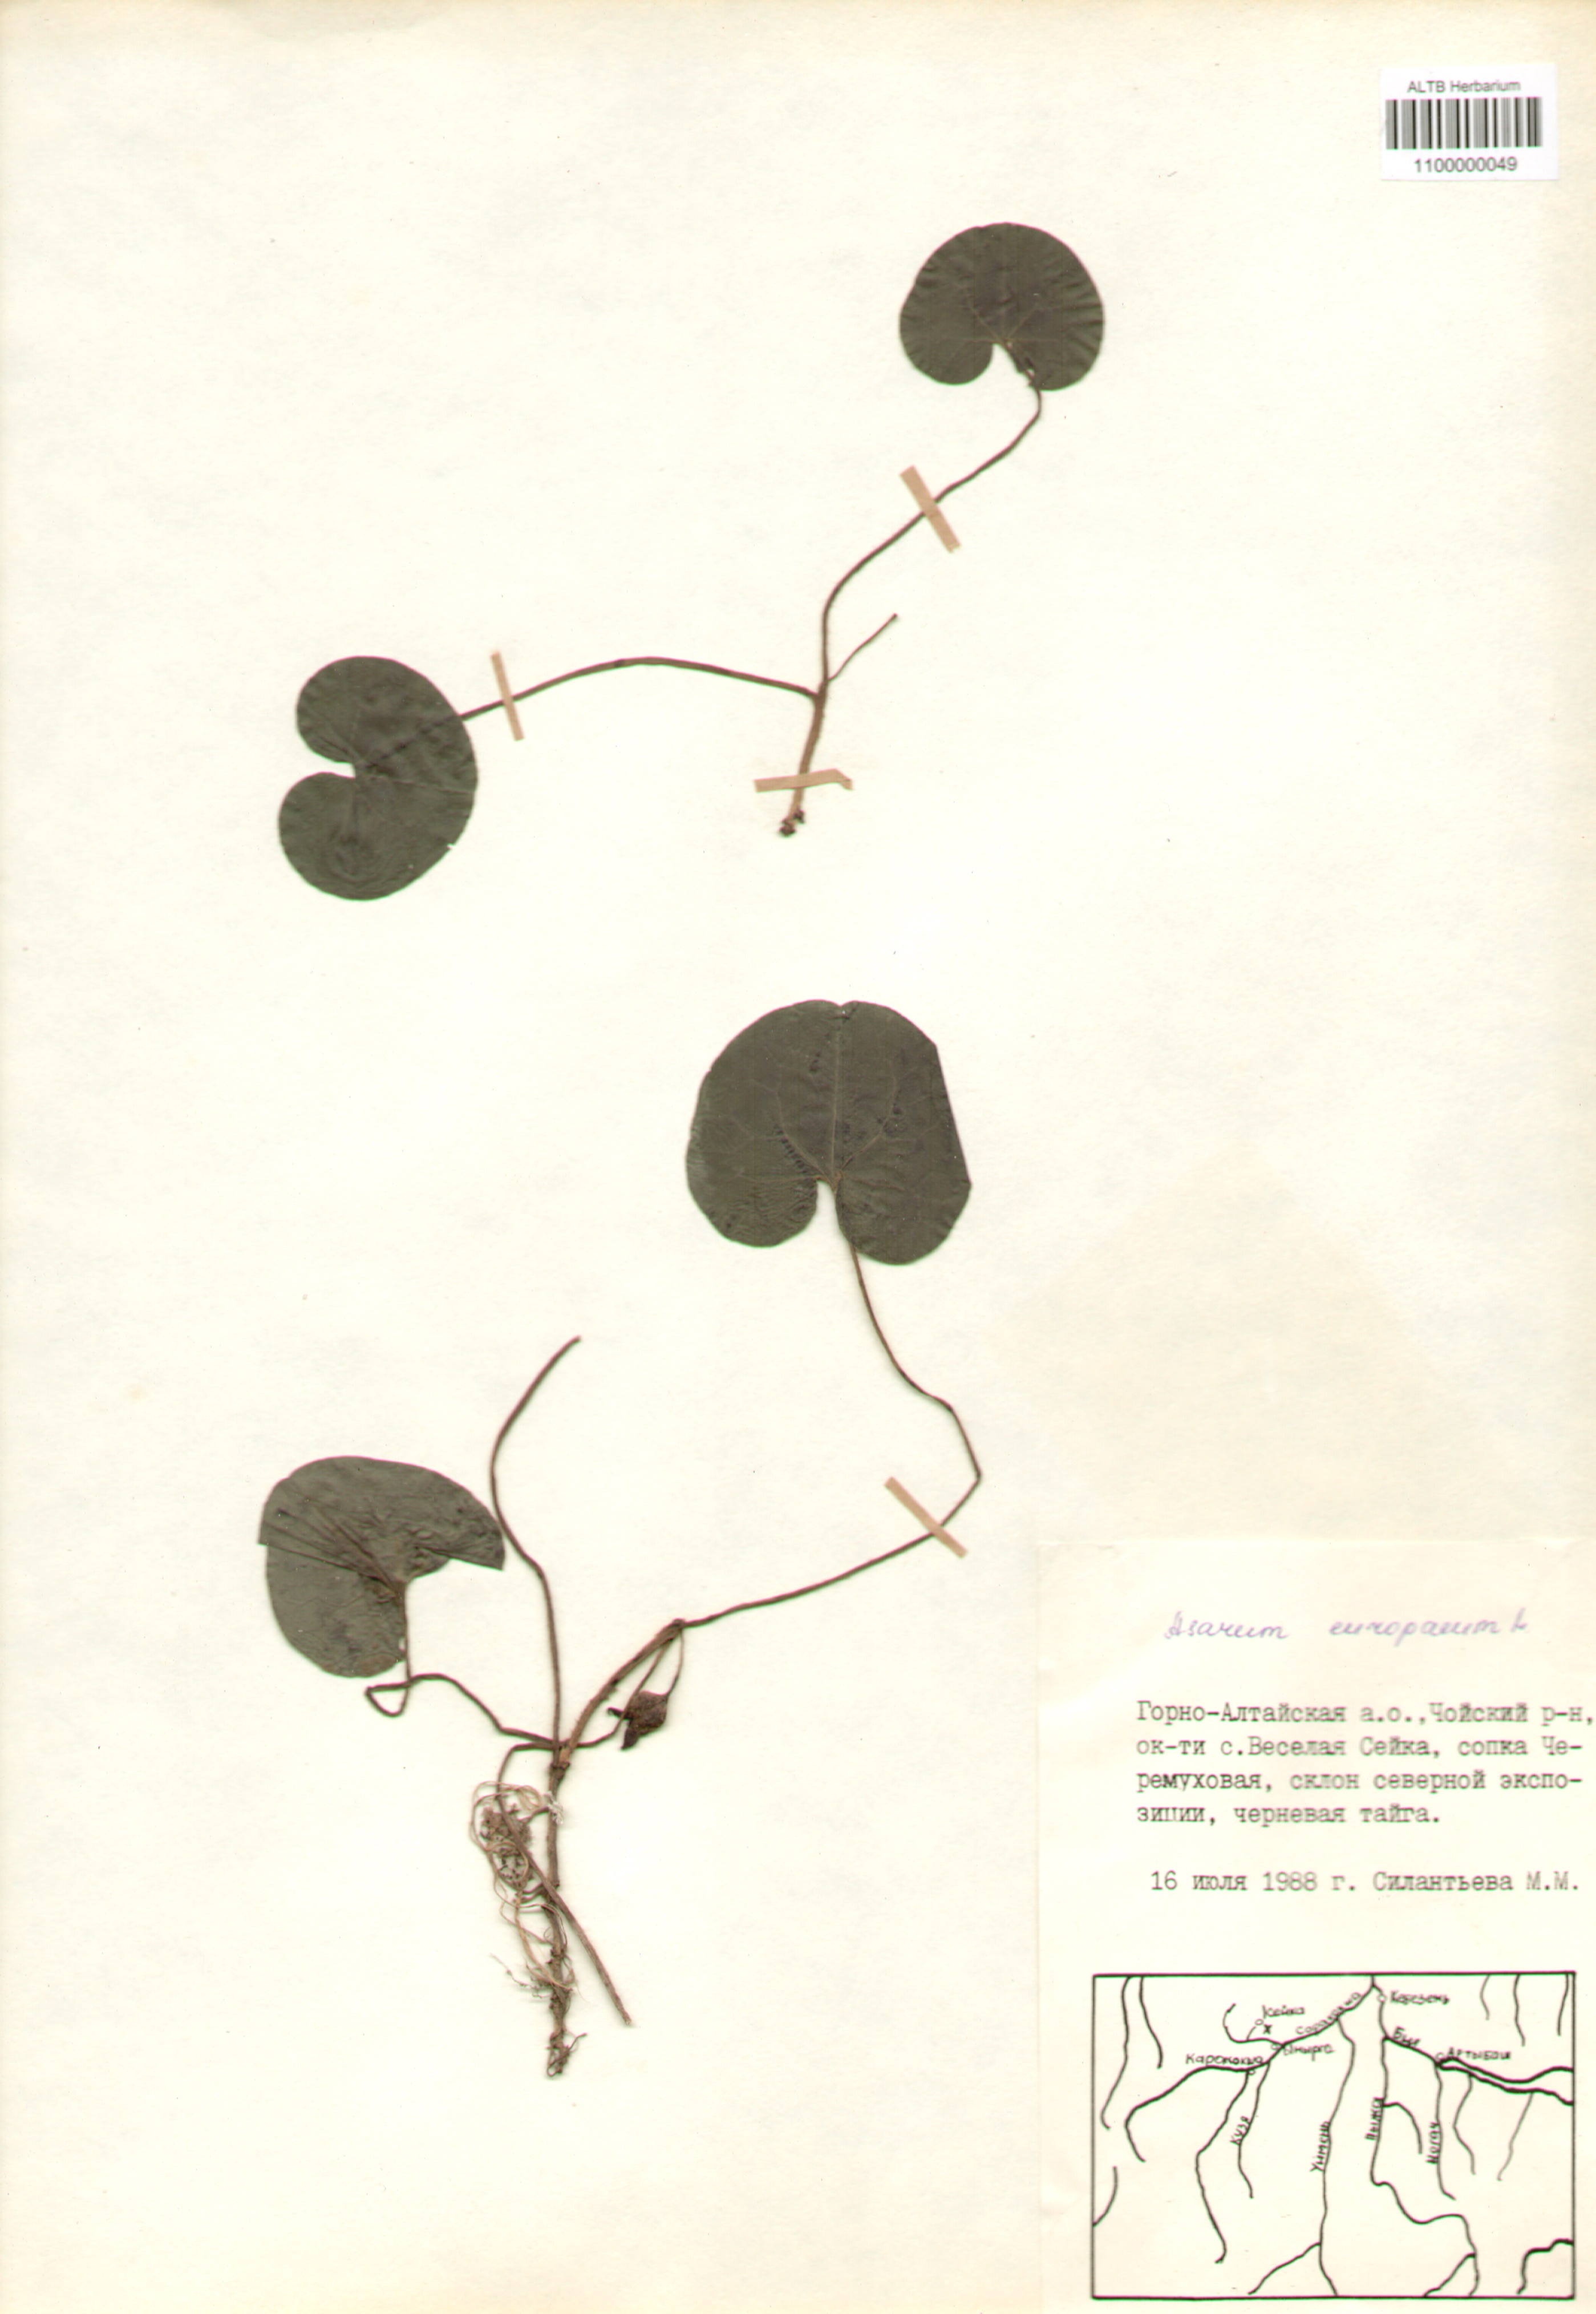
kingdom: Plantae
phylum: Tracheophyta
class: Magnoliopsida
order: Piperales
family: Aristolochiaceae
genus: Asarum
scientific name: Asarum europaeum
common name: Asarabacca
